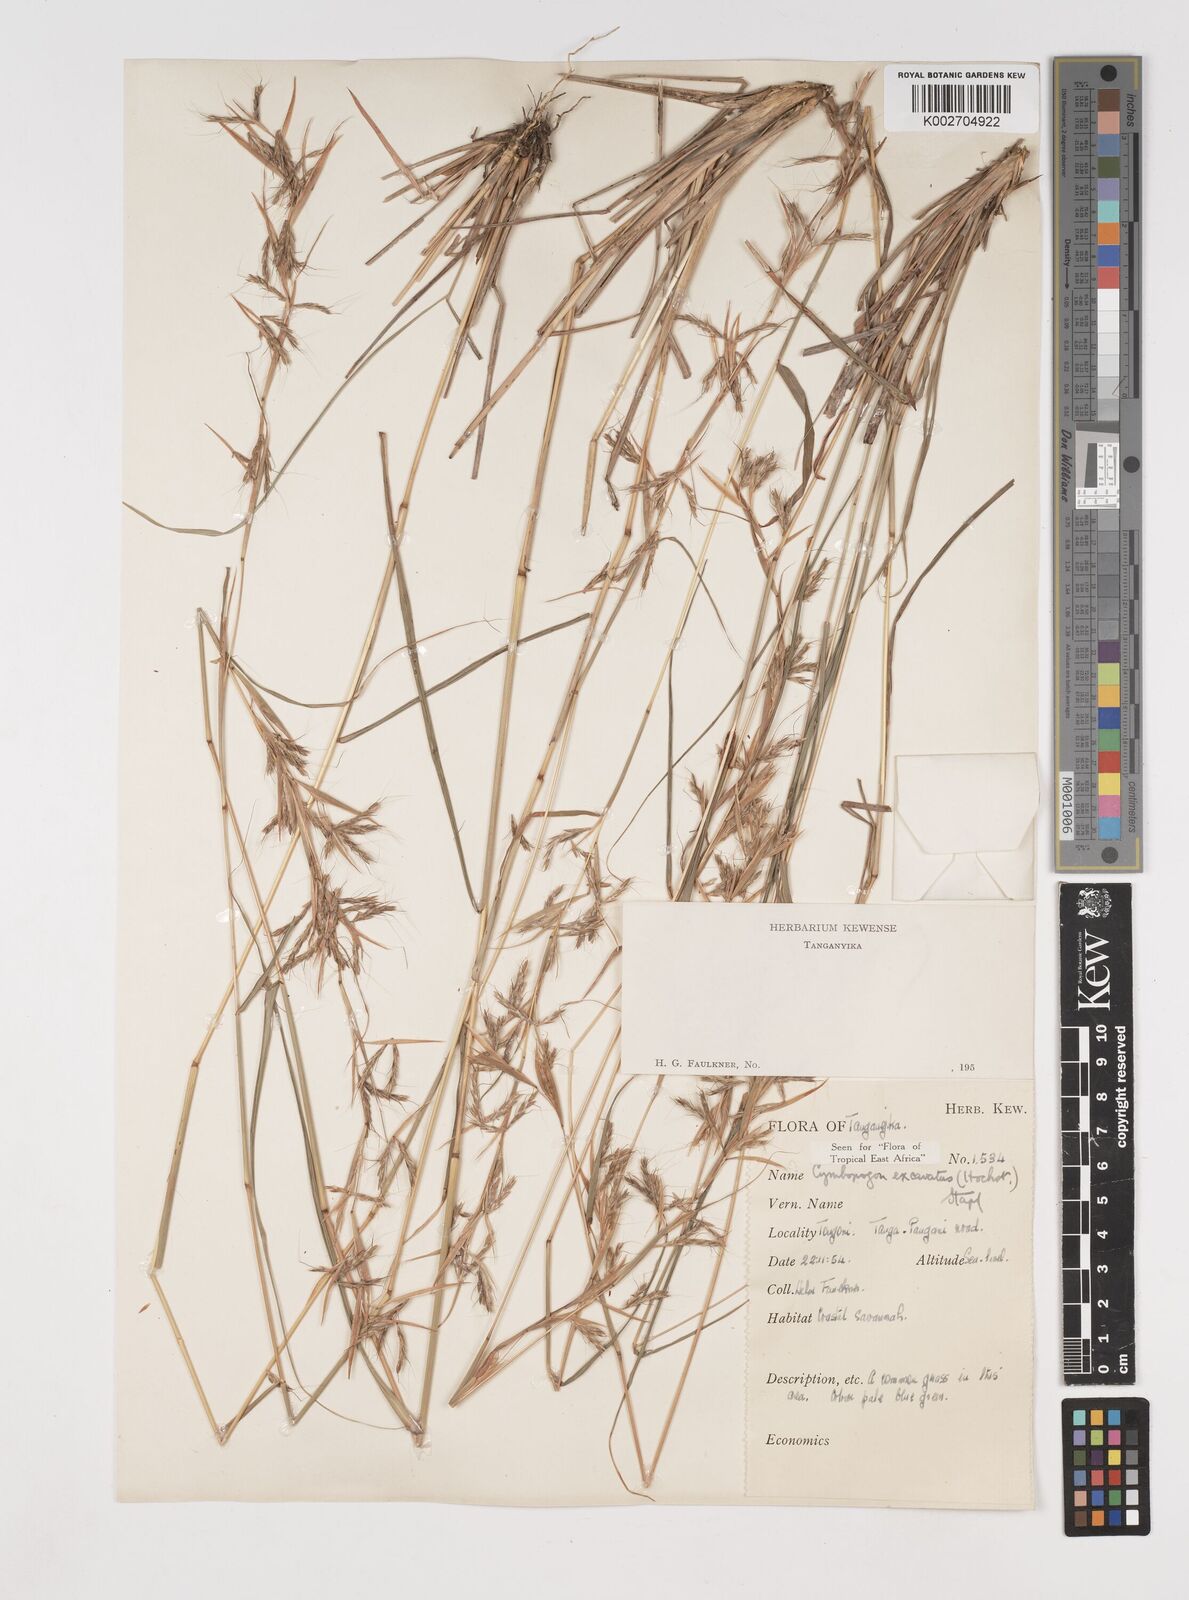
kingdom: Plantae
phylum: Tracheophyta
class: Liliopsida
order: Poales
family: Poaceae
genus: Cymbopogon
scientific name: Cymbopogon caesius
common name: Kachi grass
